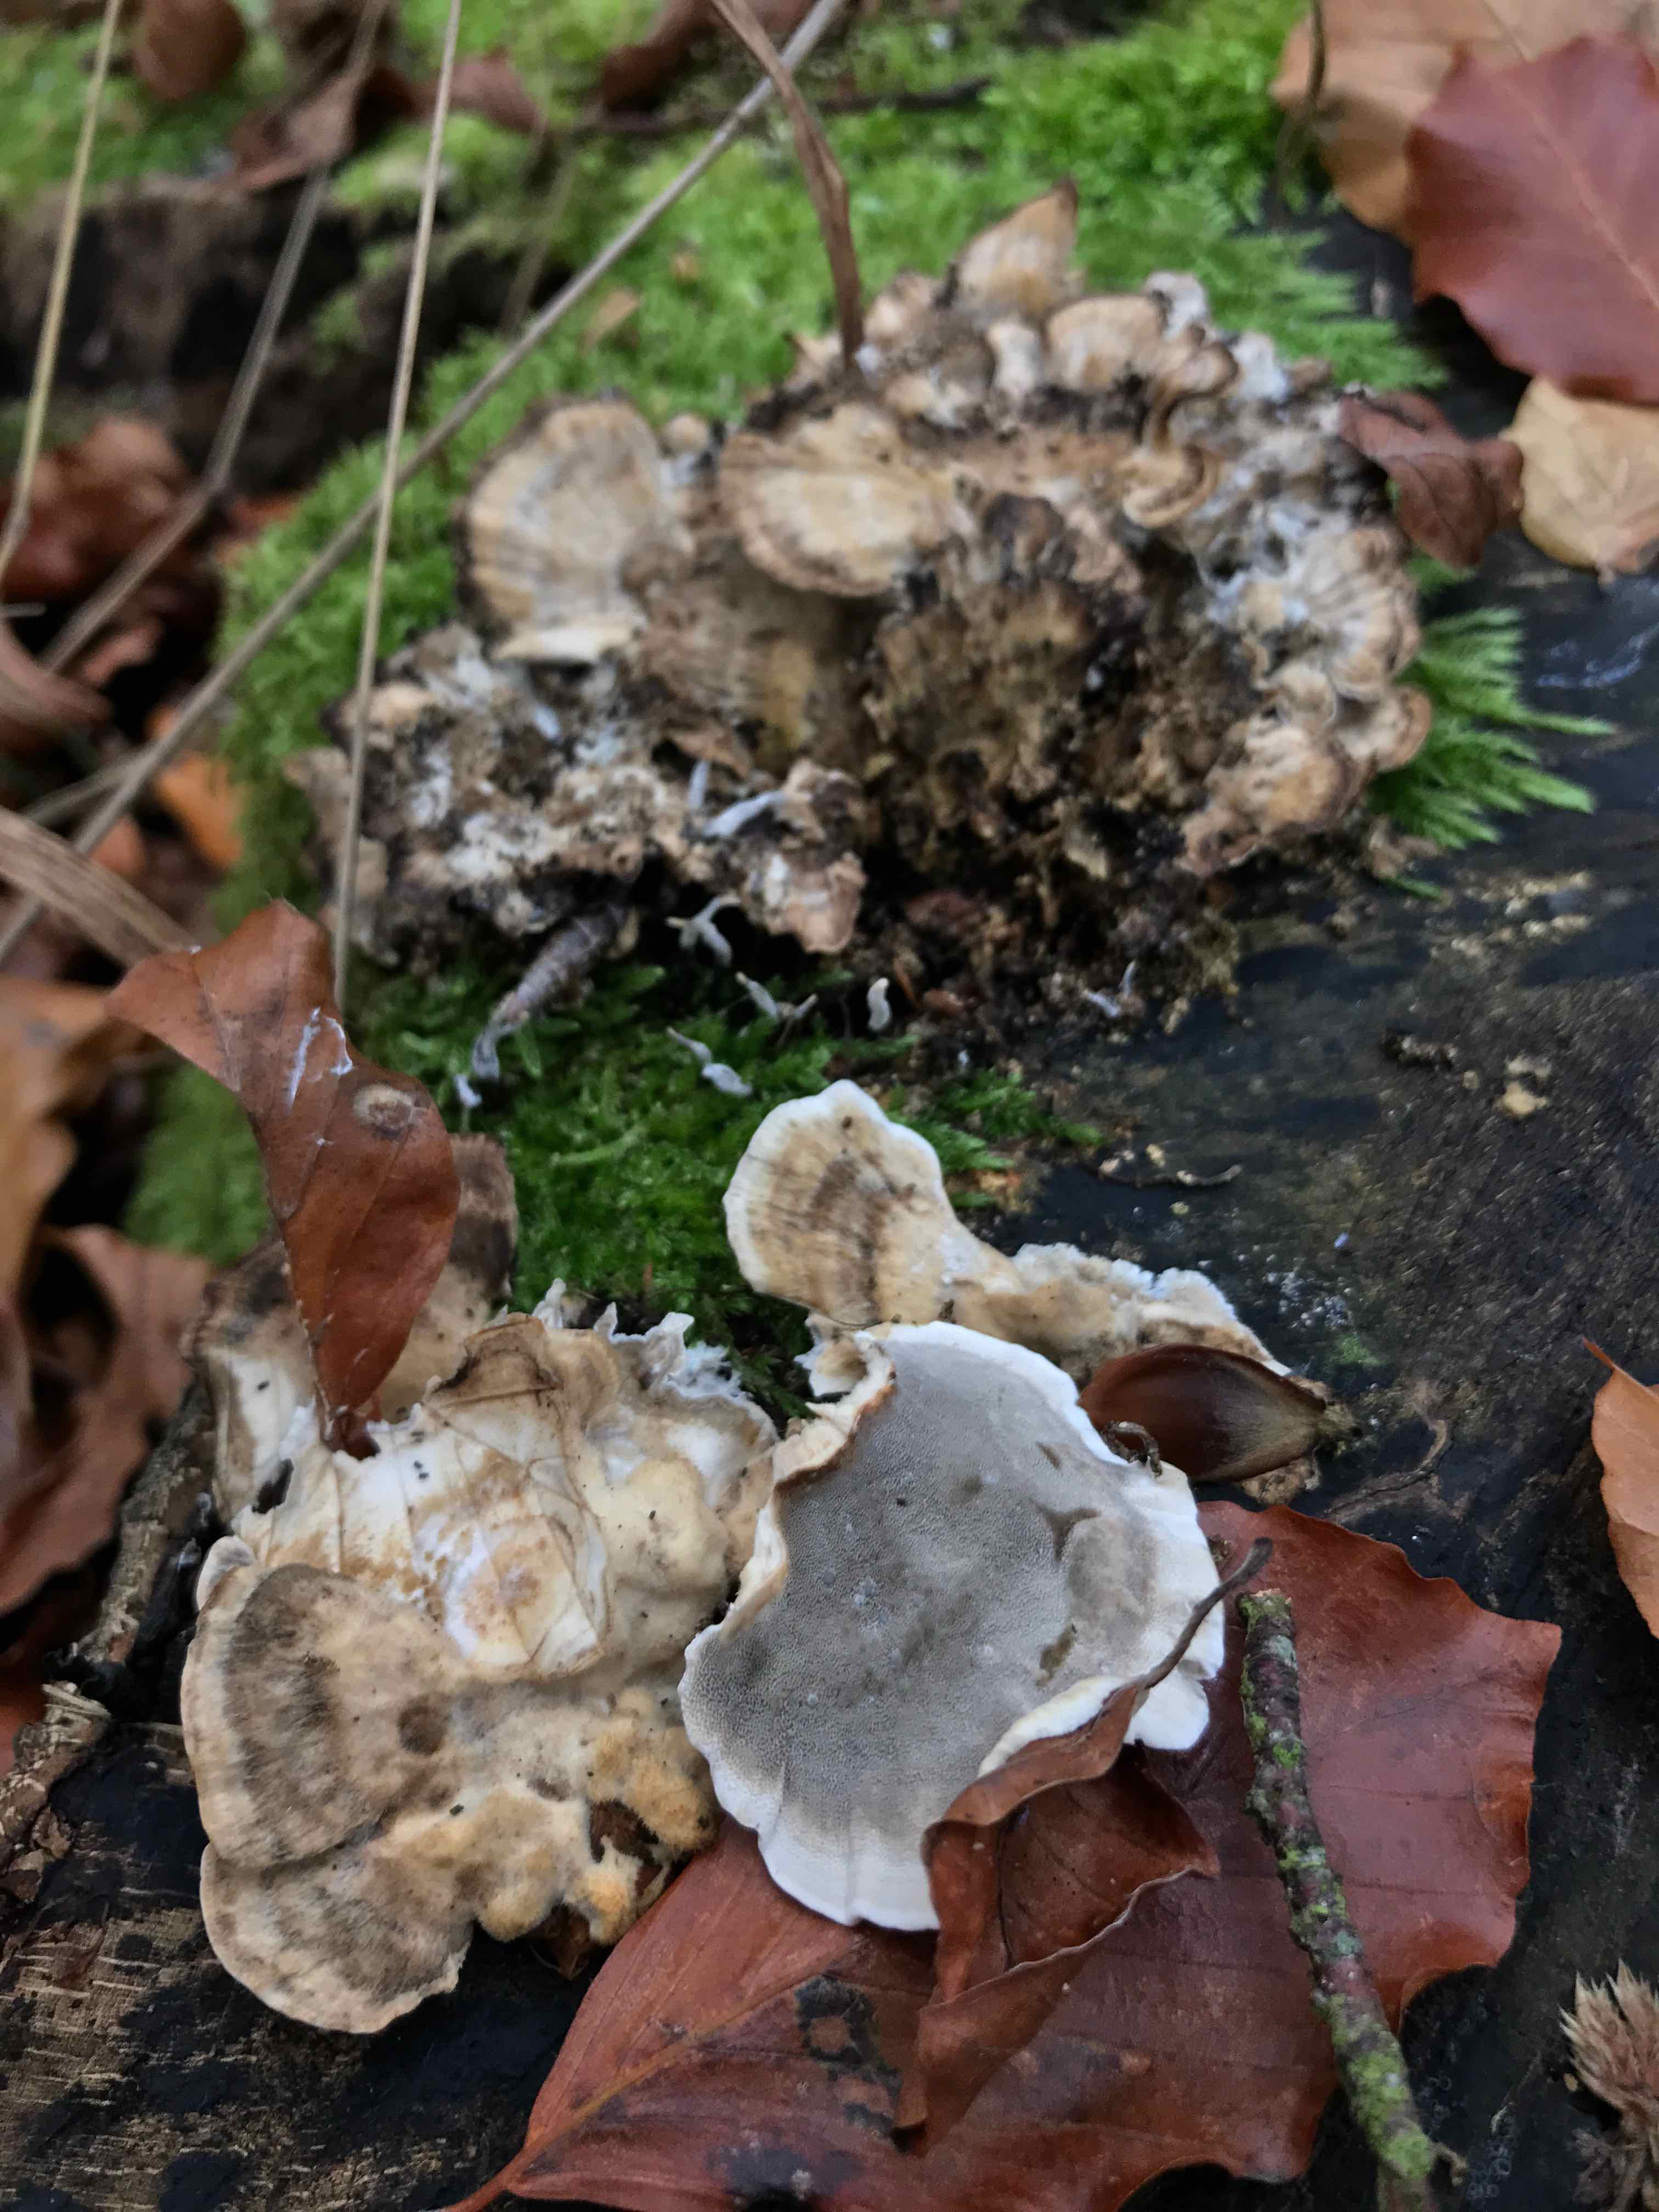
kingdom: Fungi
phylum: Basidiomycota
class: Agaricomycetes
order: Polyporales
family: Phanerochaetaceae
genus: Bjerkandera
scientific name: Bjerkandera adusta
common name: sveden sodporesvamp
